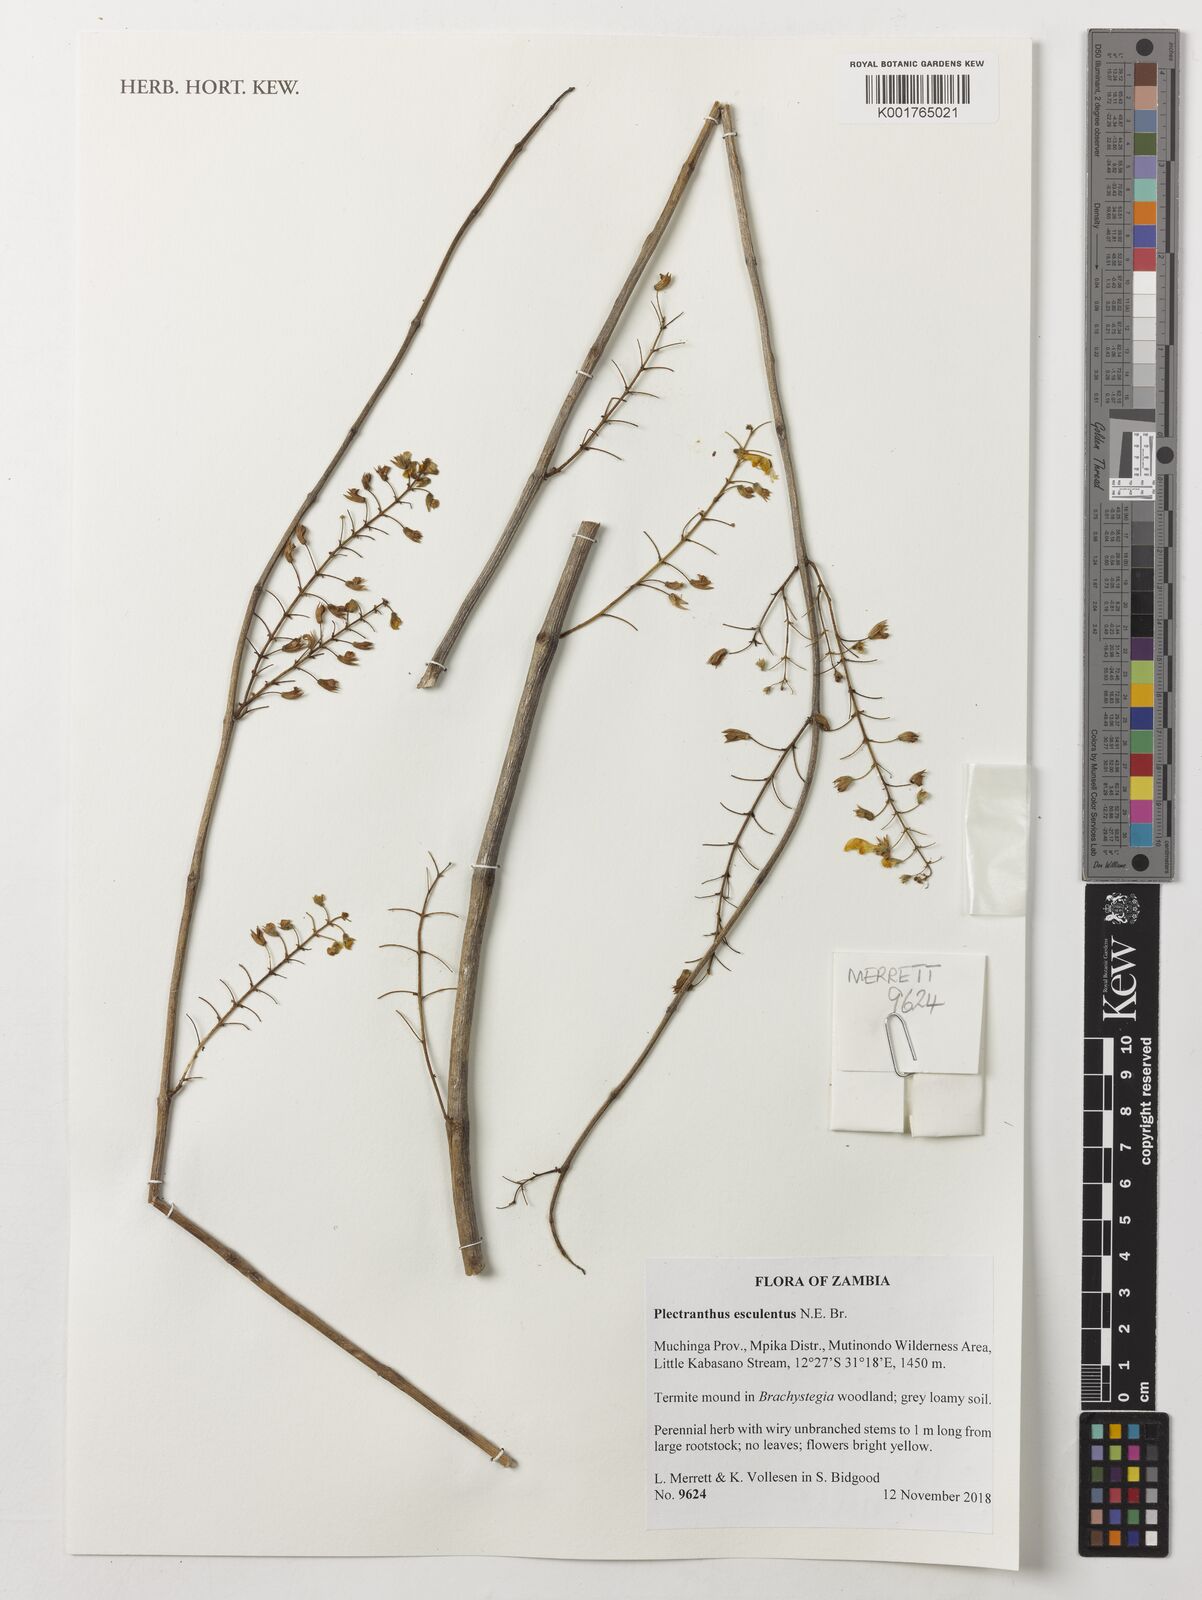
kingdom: Plantae
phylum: Tracheophyta
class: Magnoliopsida
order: Lamiales
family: Lamiaceae
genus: Coleus
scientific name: Coleus esculentus
